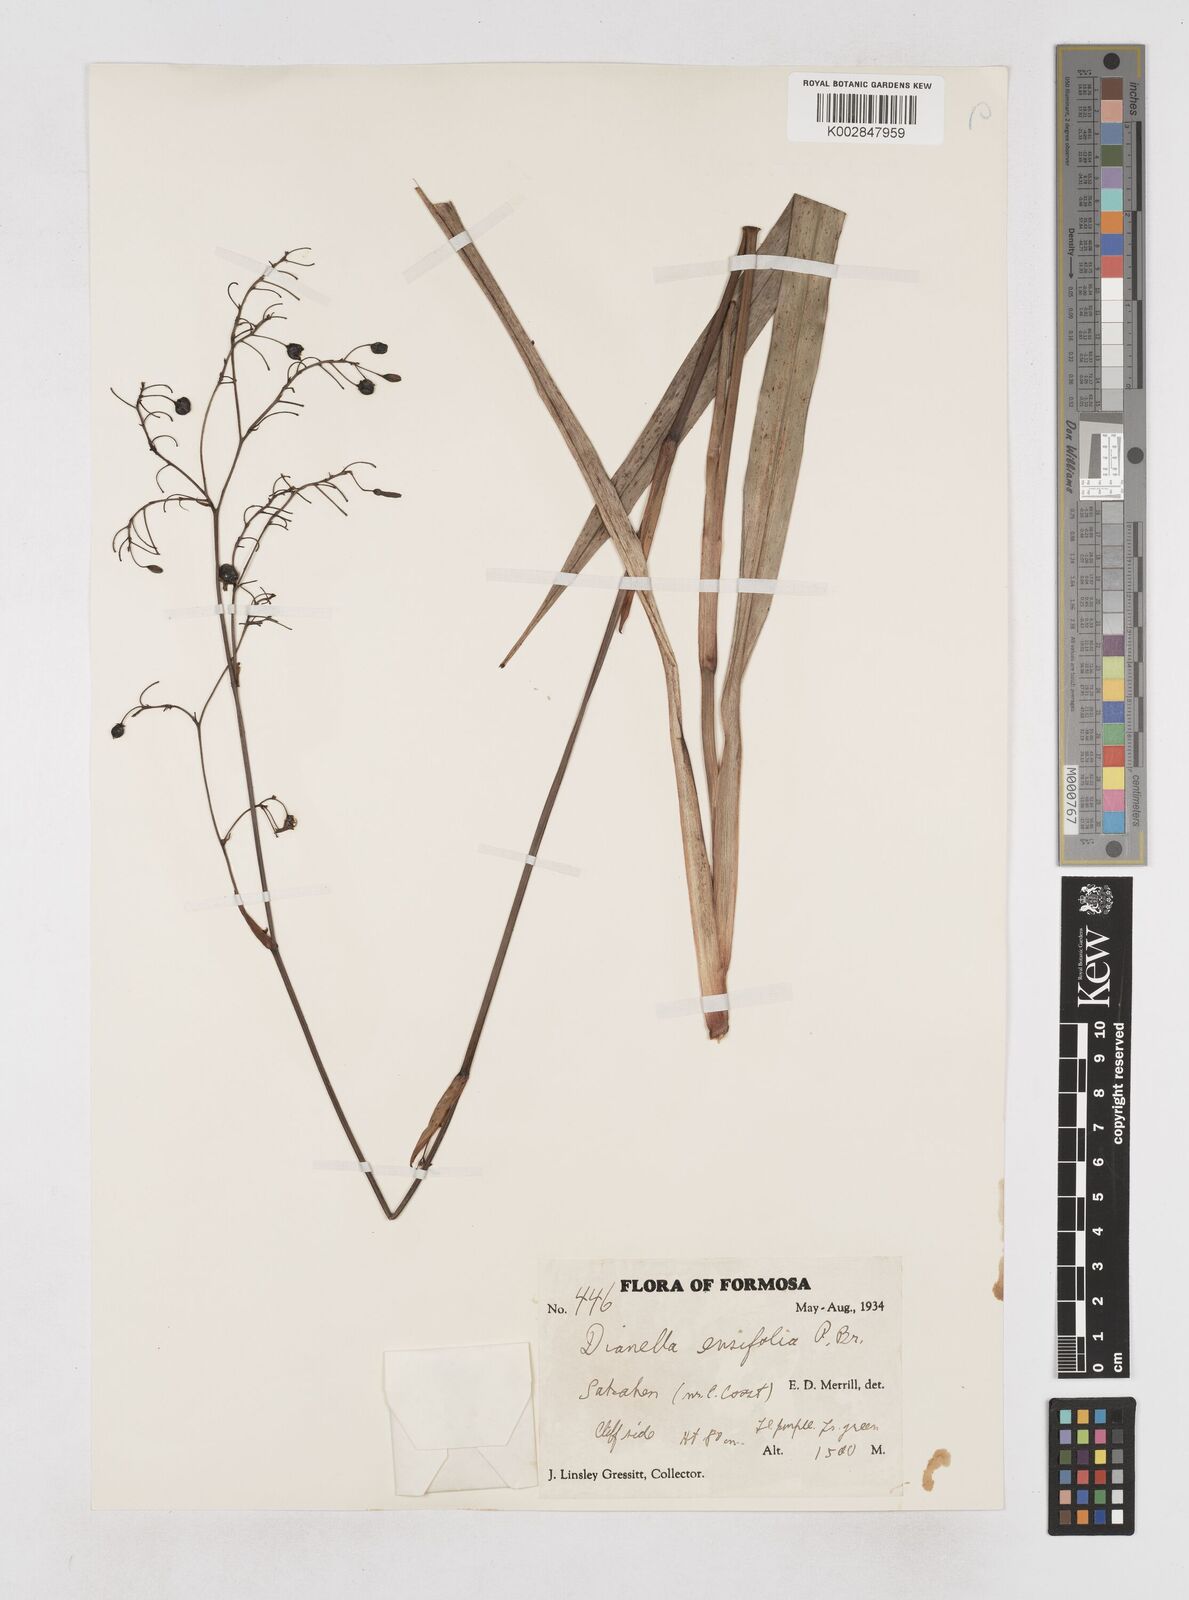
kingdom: Plantae
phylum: Tracheophyta
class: Liliopsida
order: Asparagales
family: Asphodelaceae
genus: Dianella
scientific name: Dianella ensifolia
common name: New zealand lilyplant
